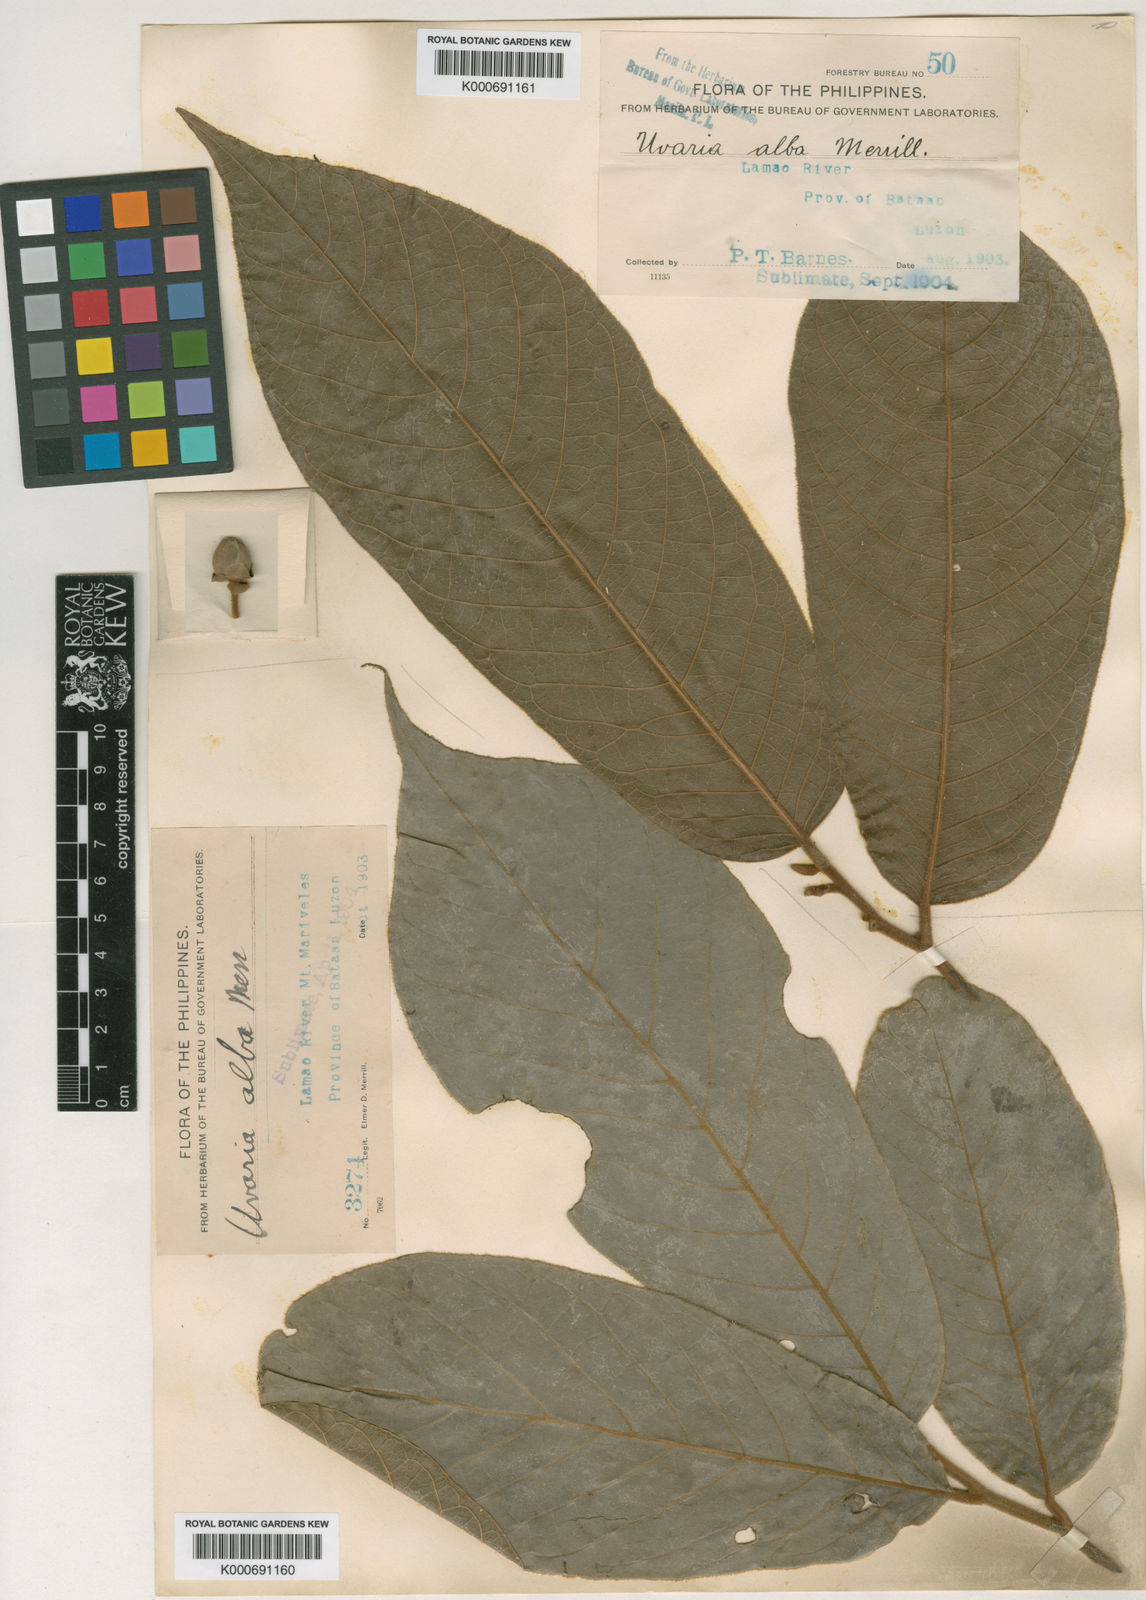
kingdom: Plantae
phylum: Tracheophyta
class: Magnoliopsida
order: Magnoliales
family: Annonaceae
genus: Uvaria
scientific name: Uvaria alba
